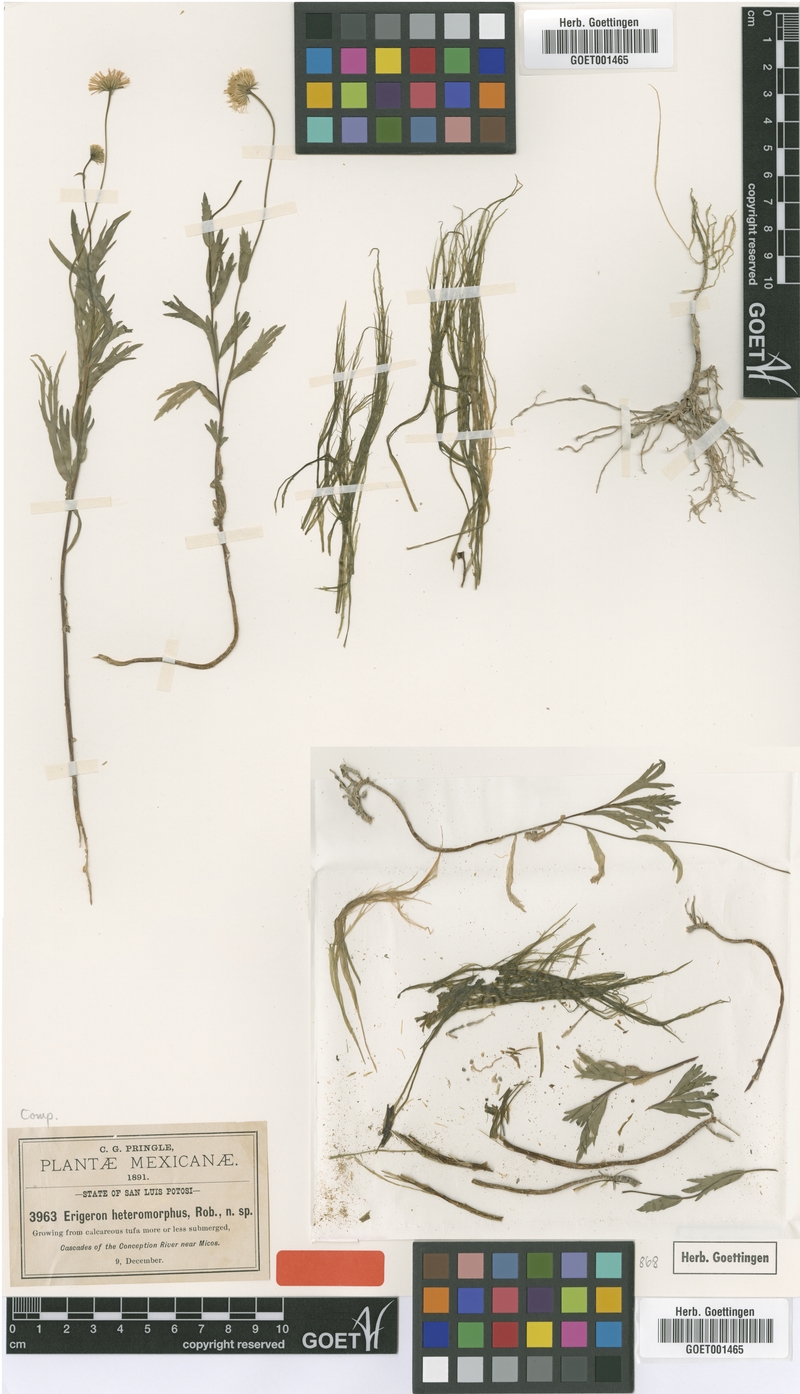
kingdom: Plantae
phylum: Tracheophyta
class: Magnoliopsida
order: Asterales
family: Asteraceae
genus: Erigeron
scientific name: Erigeron heteromorphus
